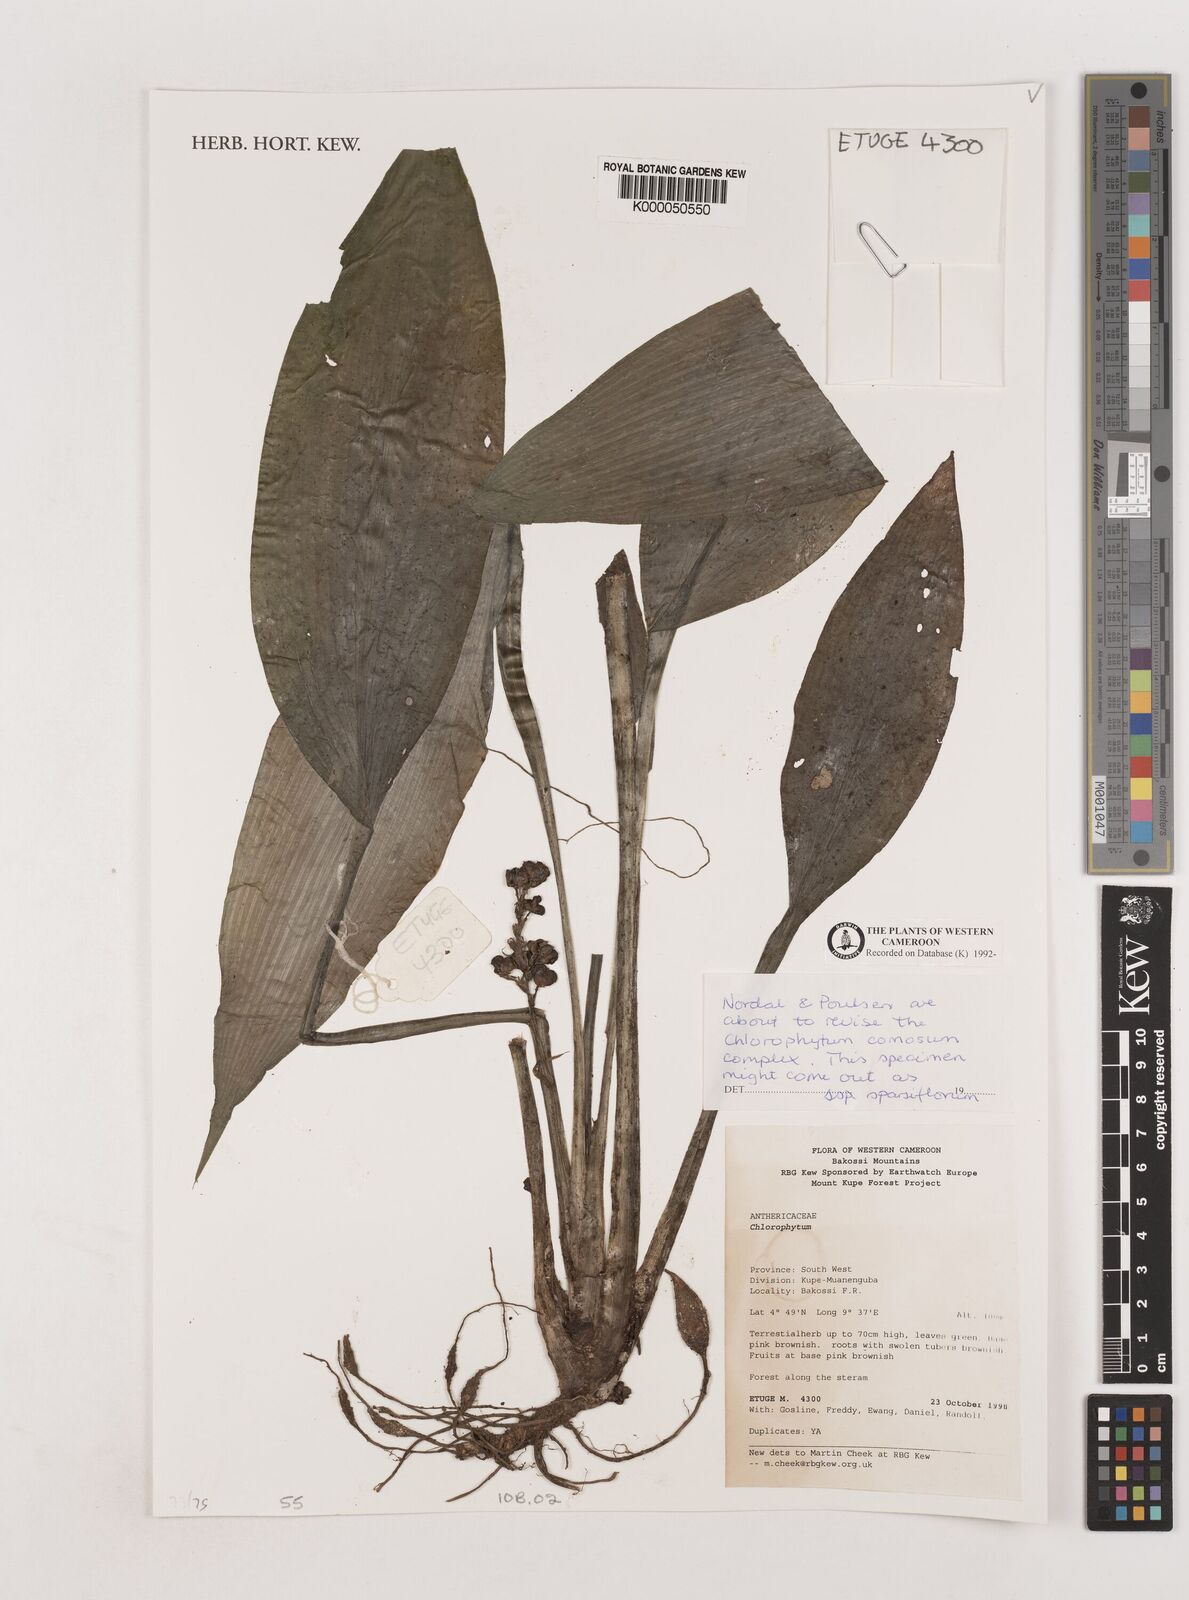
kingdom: Plantae
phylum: Tracheophyta
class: Liliopsida
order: Asparagales
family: Asparagaceae
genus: Chlorophytum
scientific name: Chlorophytum sparsiflorum
